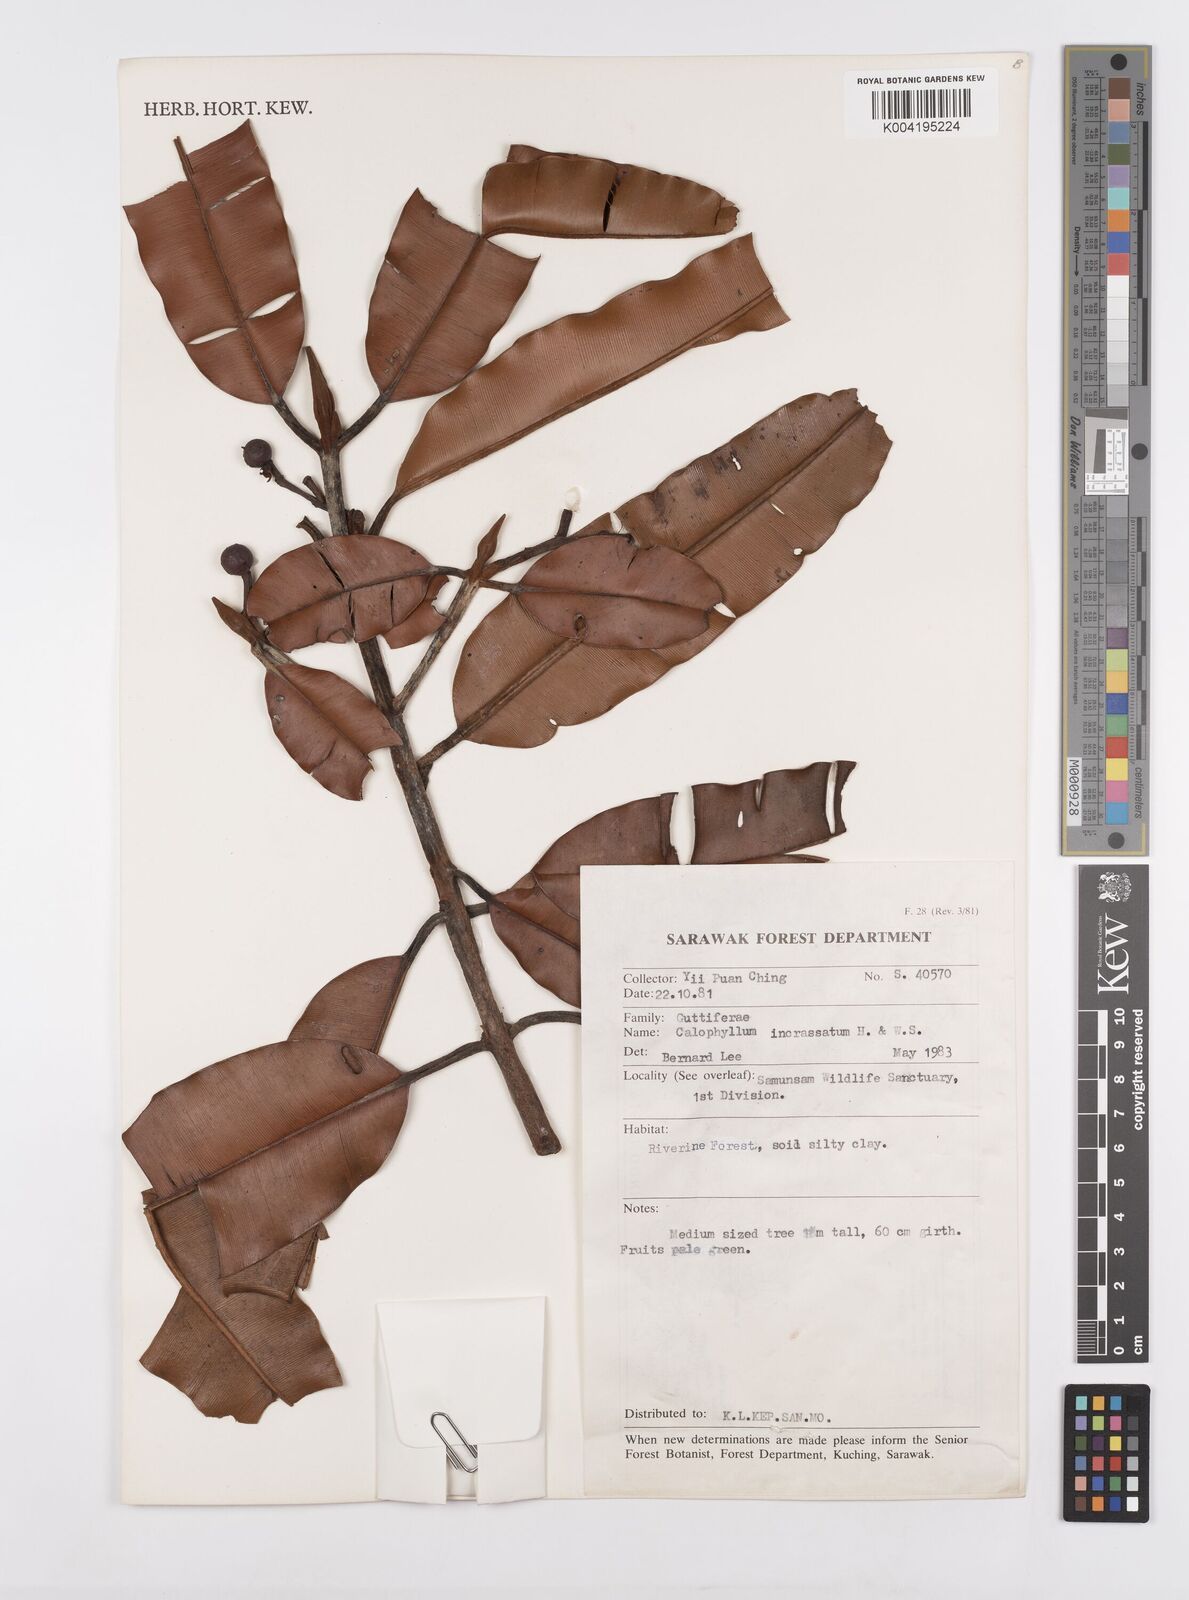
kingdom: Plantae
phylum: Tracheophyta
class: Magnoliopsida
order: Malpighiales
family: Calophyllaceae
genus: Calophyllum
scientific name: Calophyllum wallichiana
